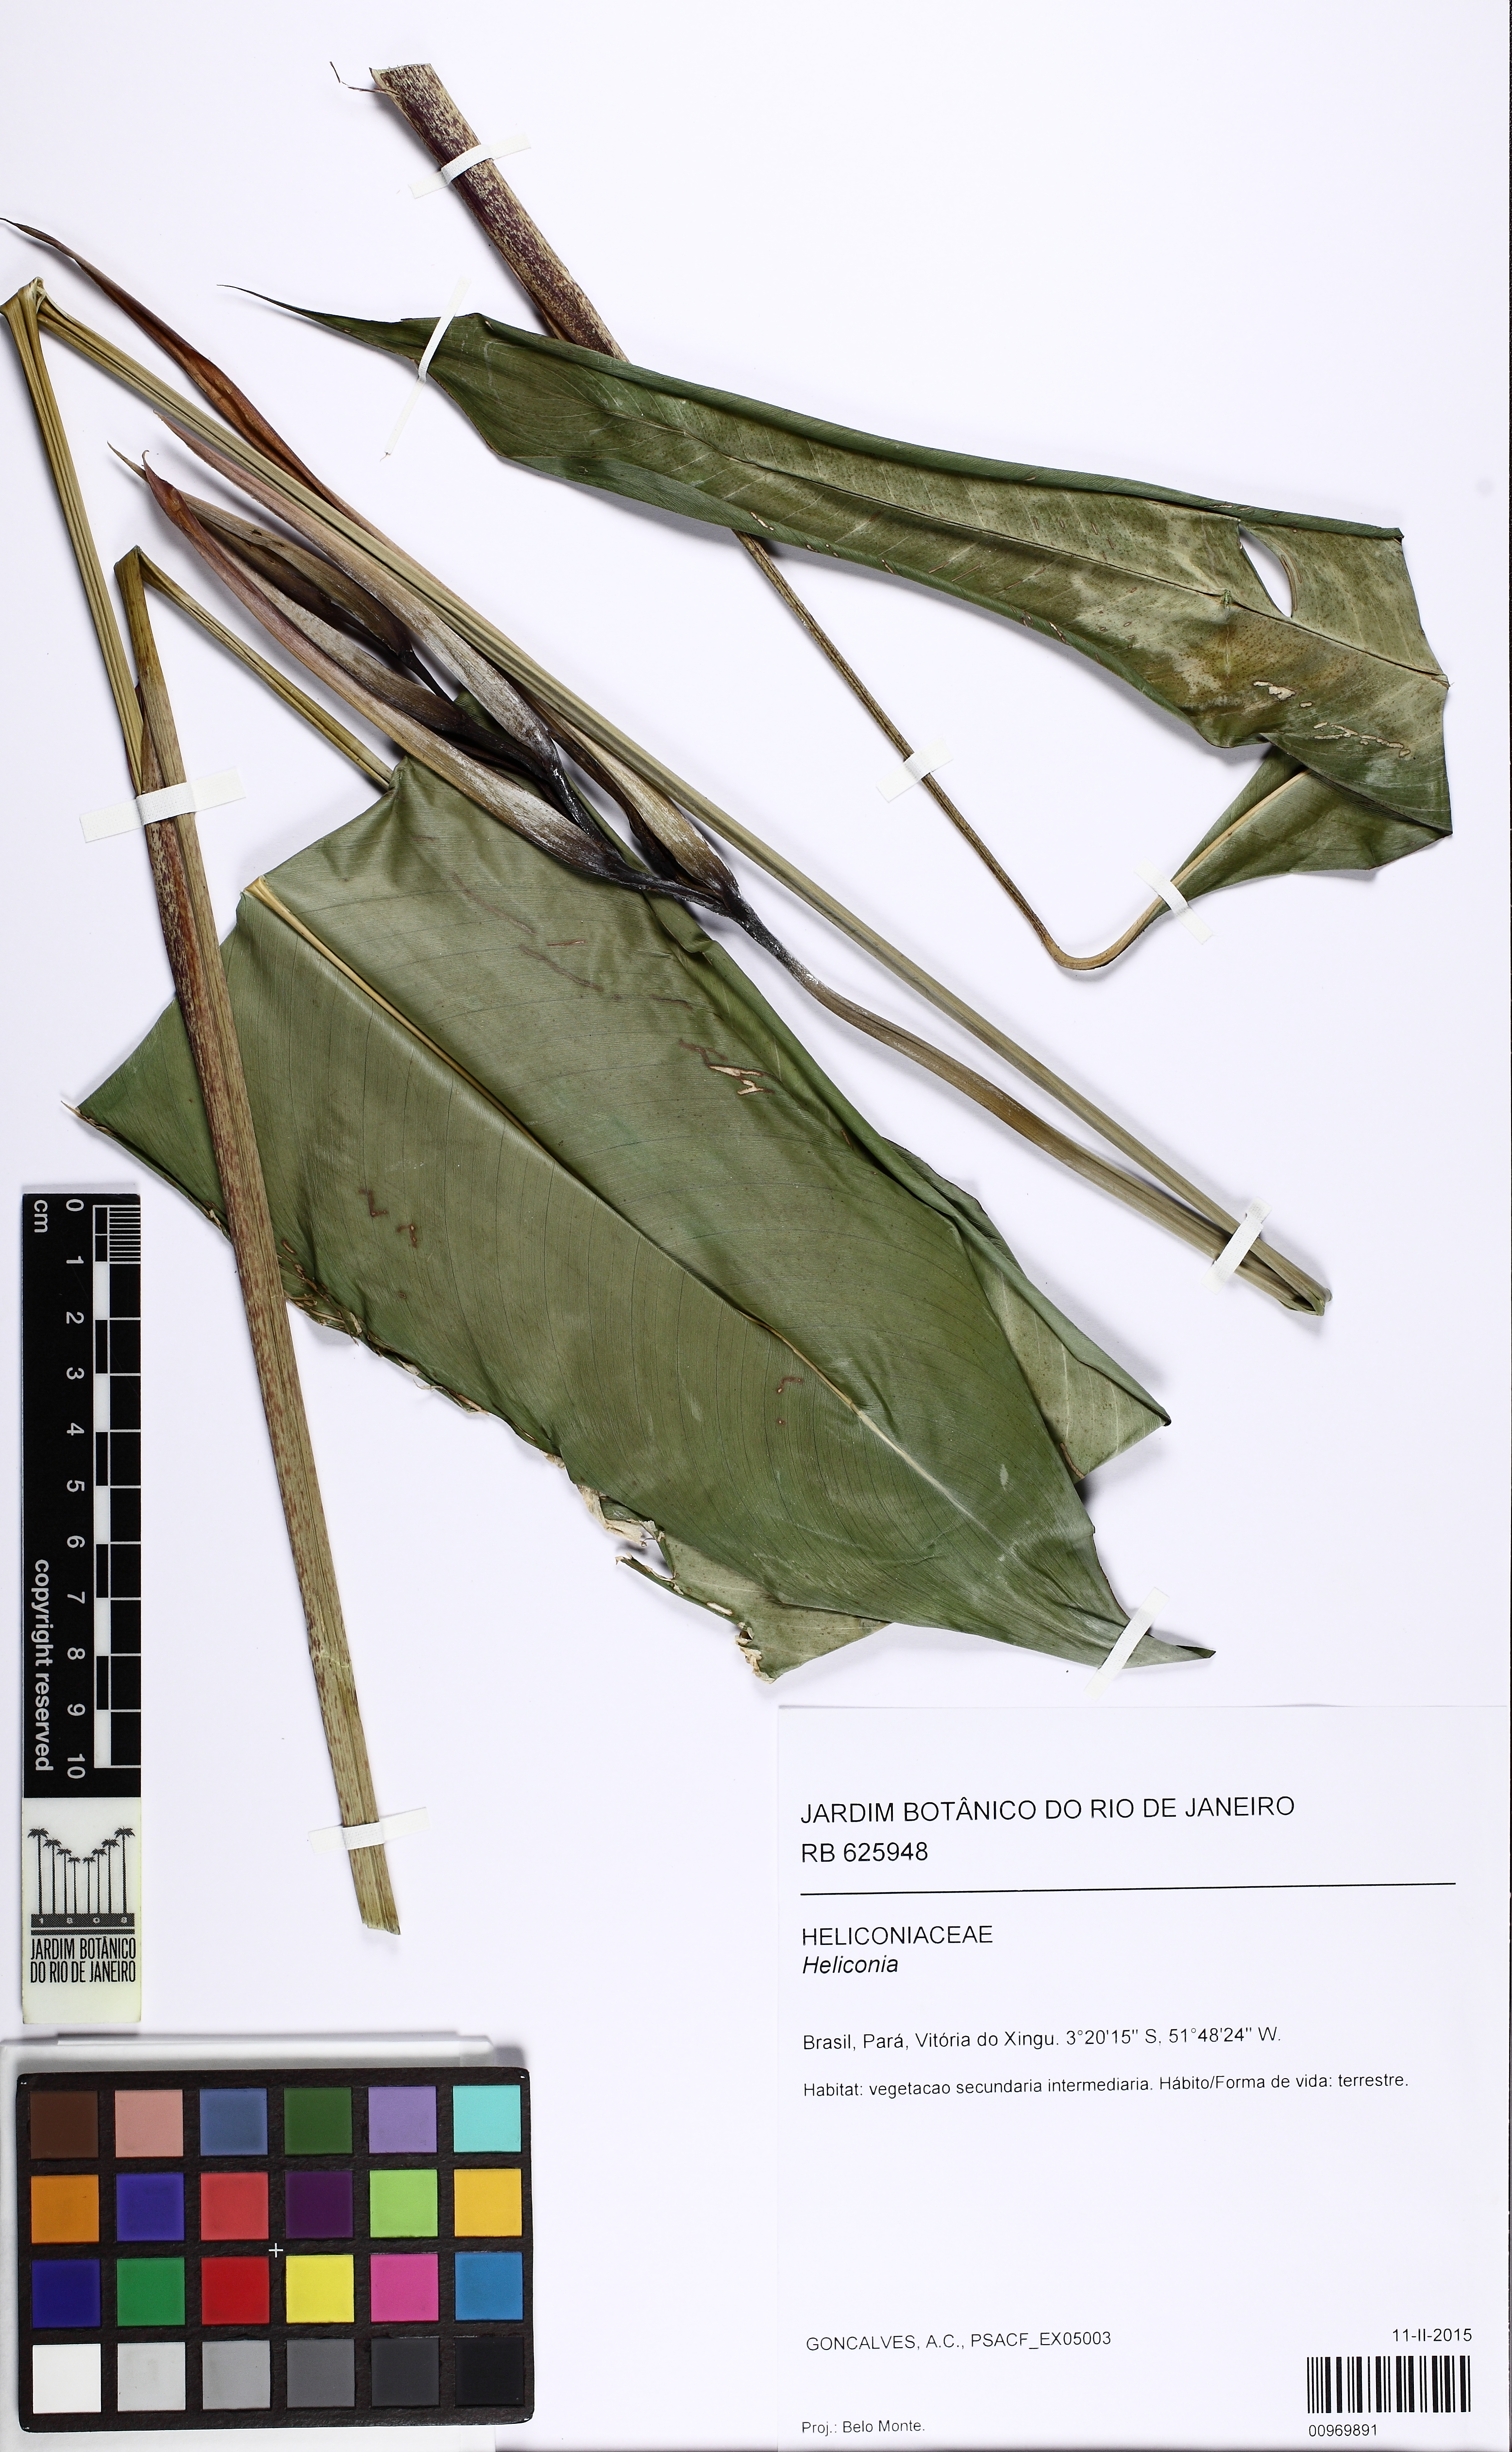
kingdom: Plantae
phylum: Tracheophyta
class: Liliopsida
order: Zingiberales
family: Heliconiaceae
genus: Heliconia
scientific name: Heliconia
